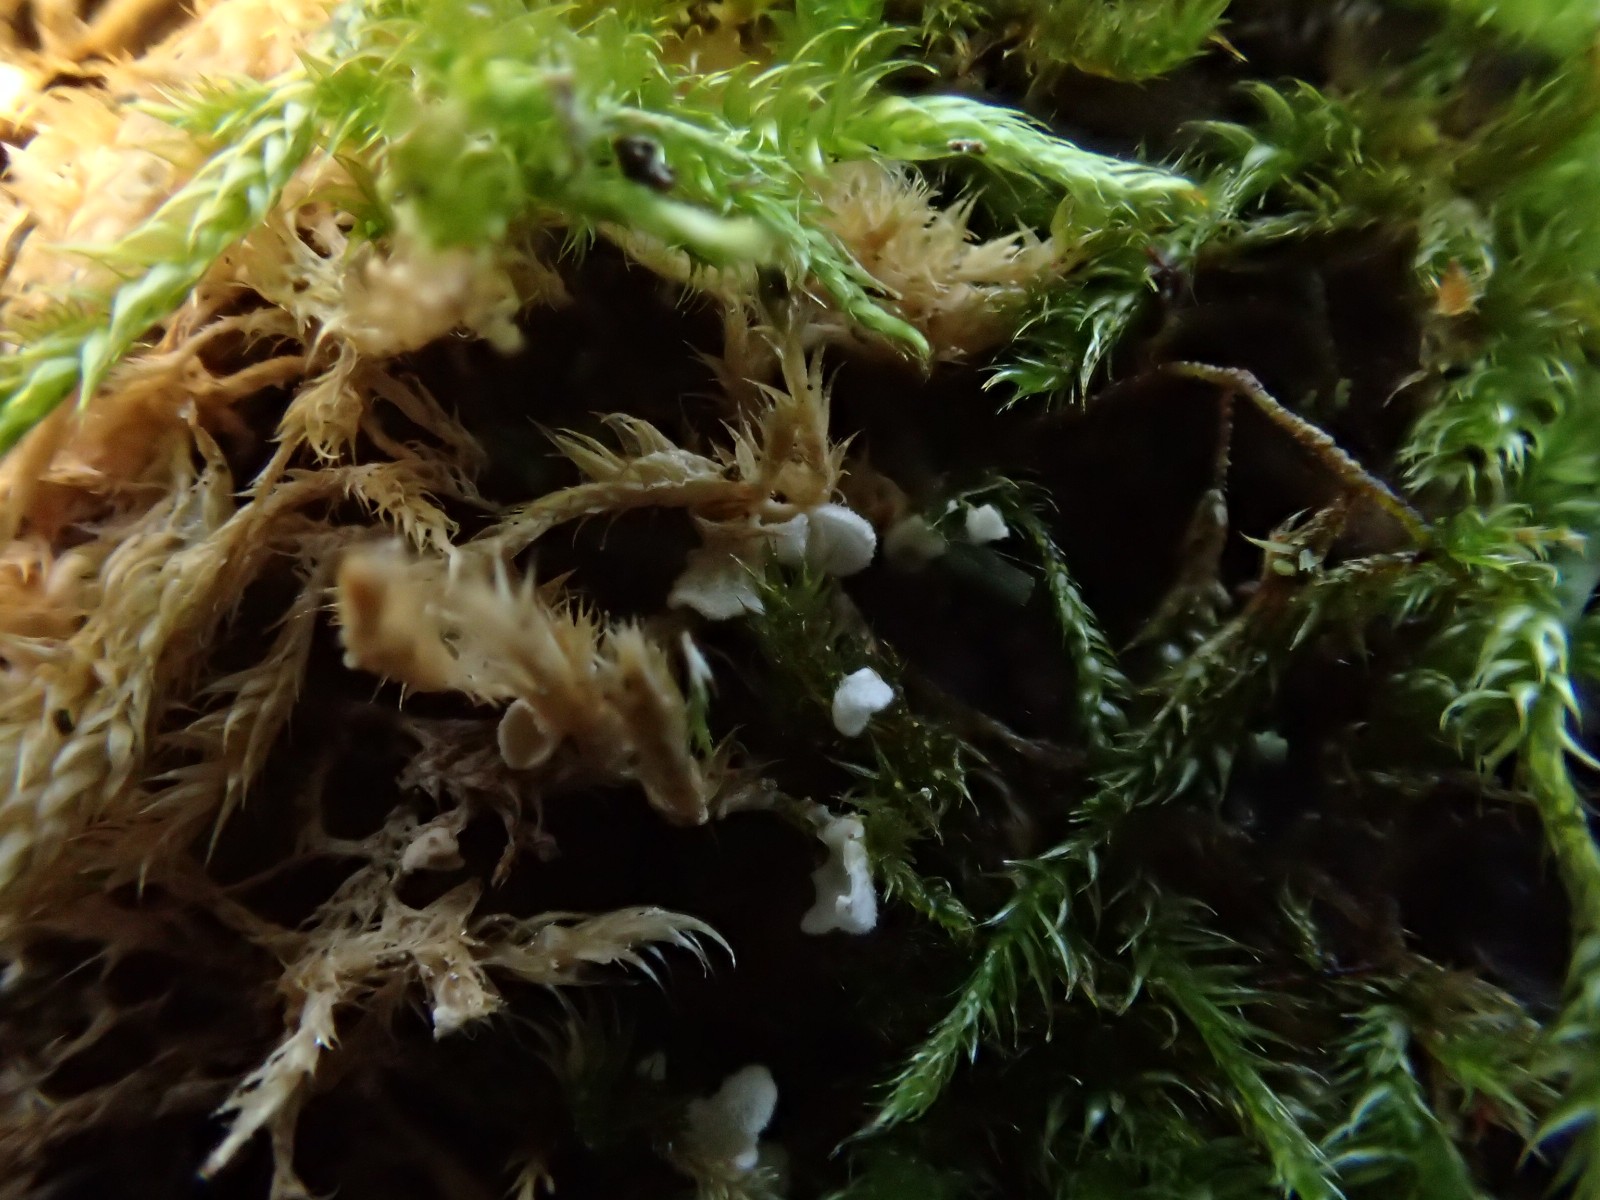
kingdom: Fungi
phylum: Basidiomycota
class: Agaricomycetes
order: Agaricales
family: Chromocyphellaceae
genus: Chromocyphella
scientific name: Chromocyphella muscicola
